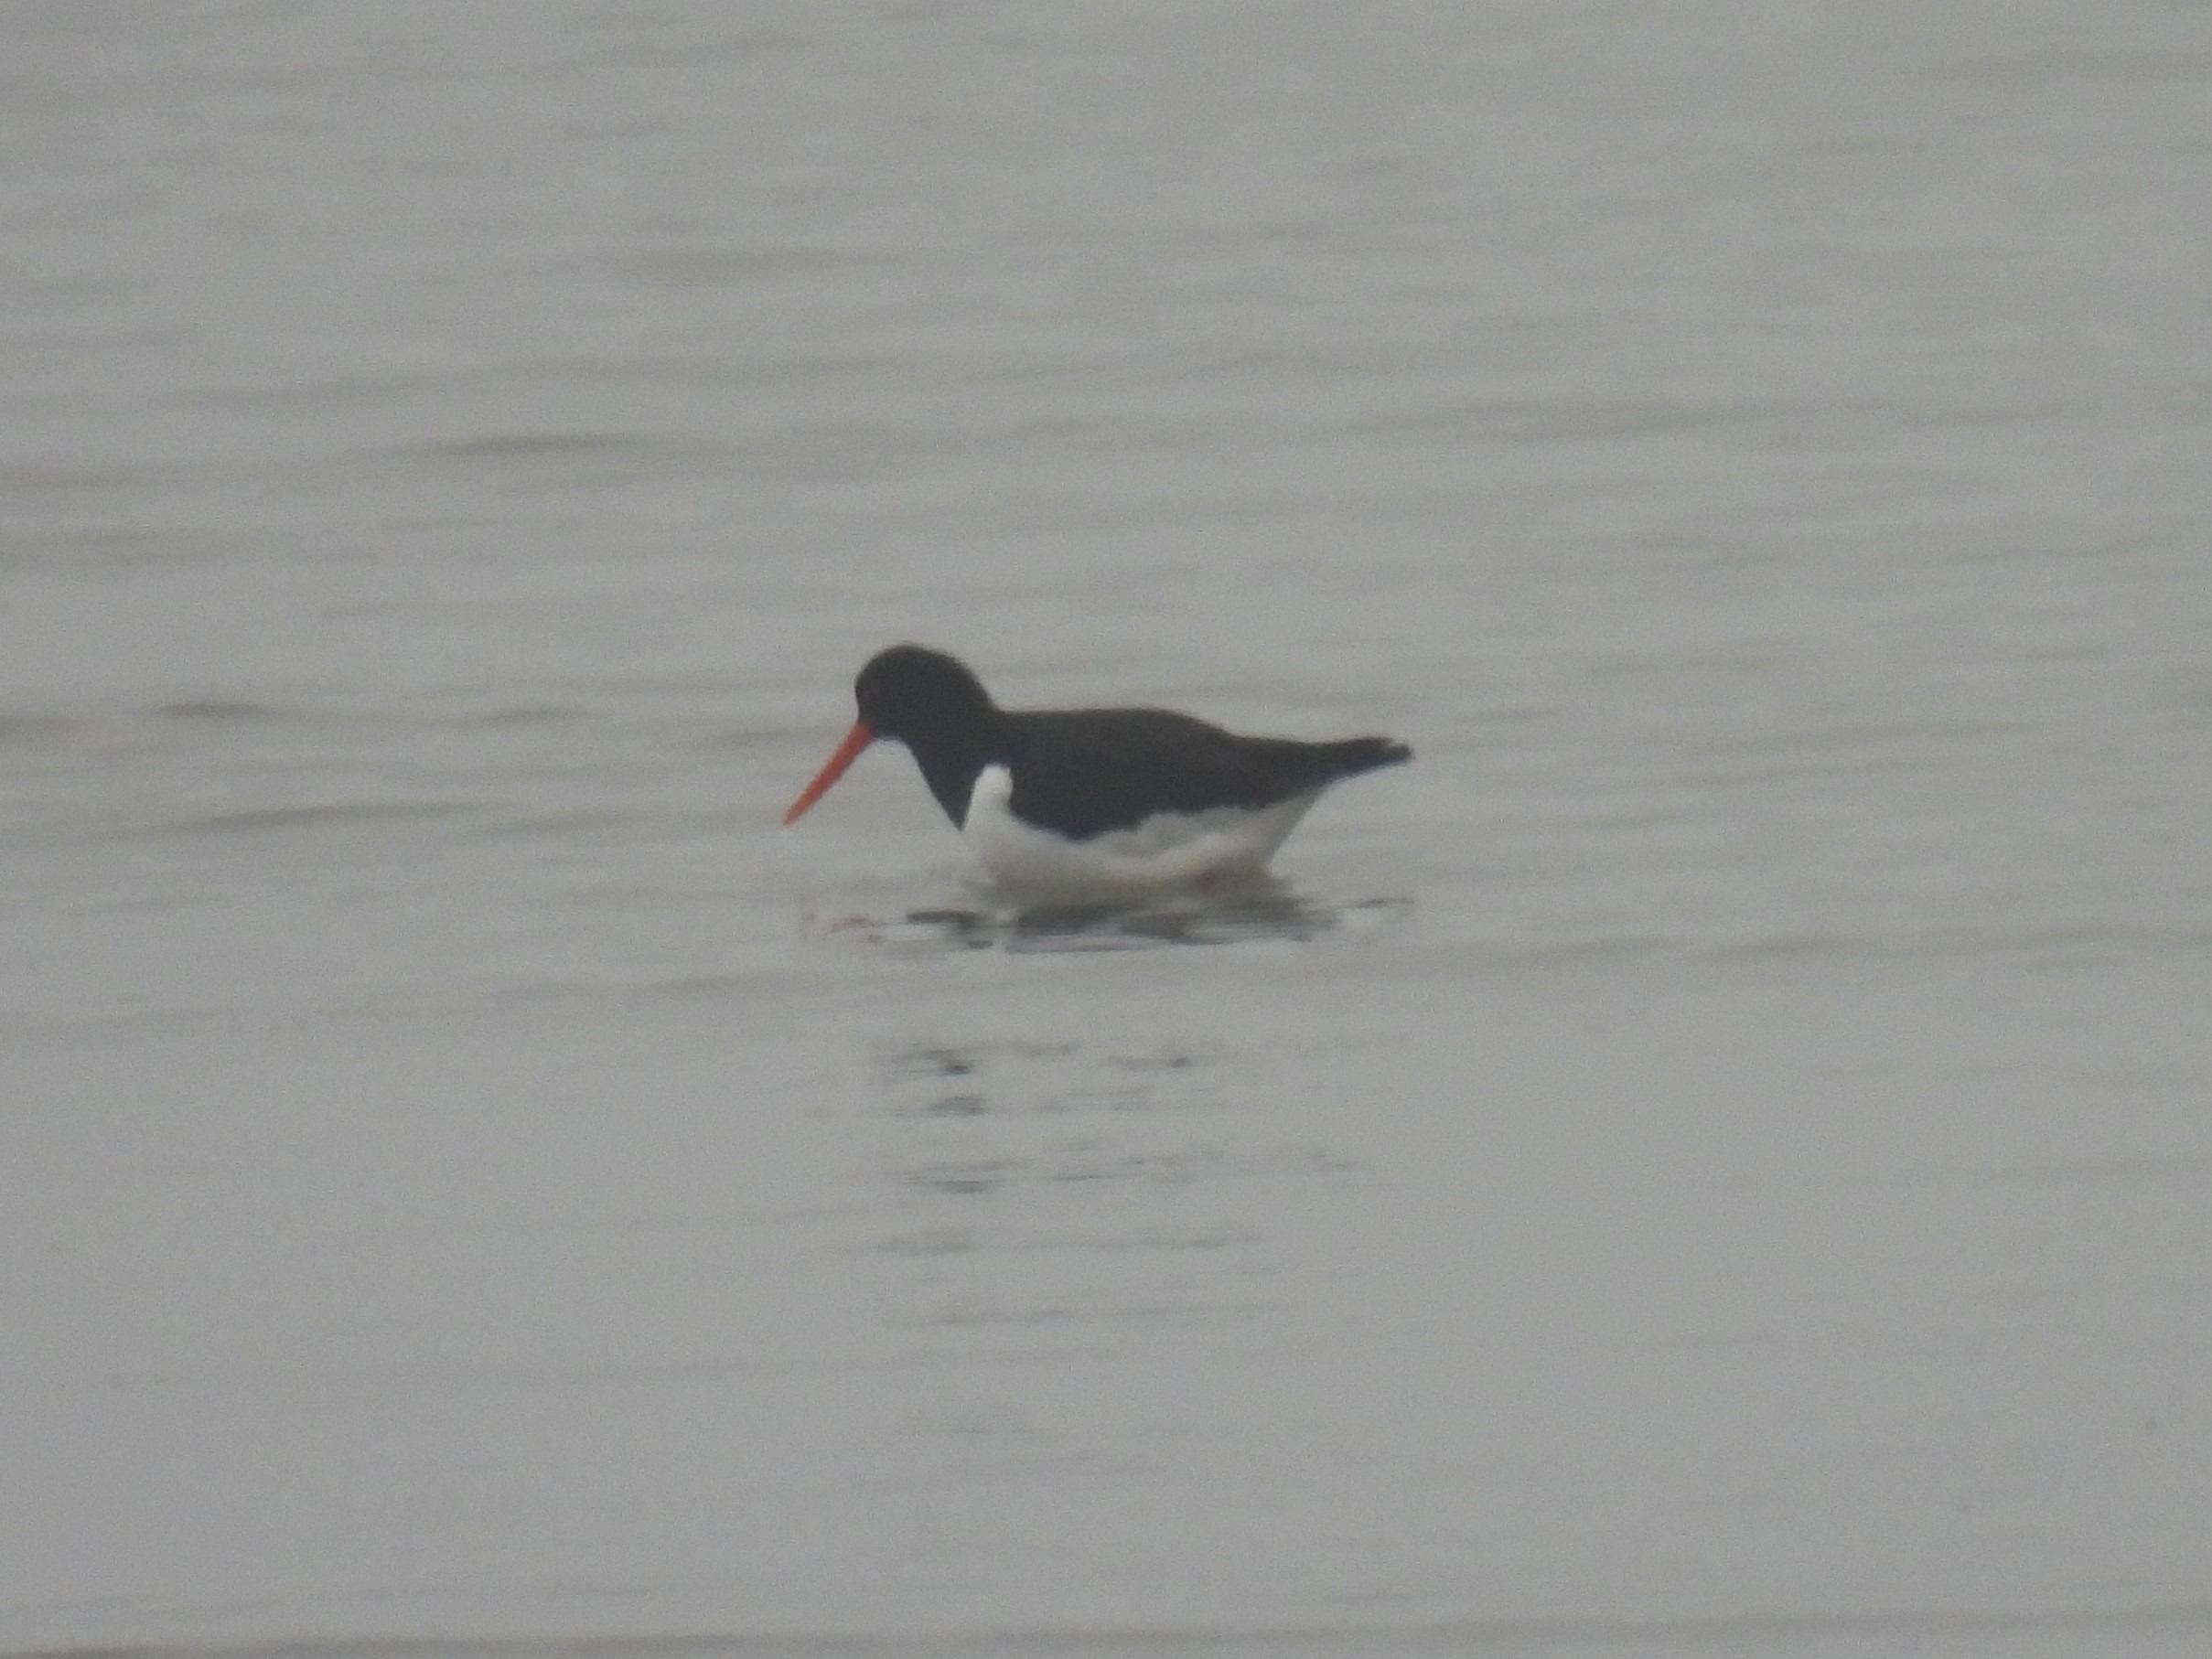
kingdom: Animalia
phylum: Chordata
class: Aves
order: Charadriiformes
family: Haematopodidae
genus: Haematopus
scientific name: Haematopus ostralegus
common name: Strandskade
